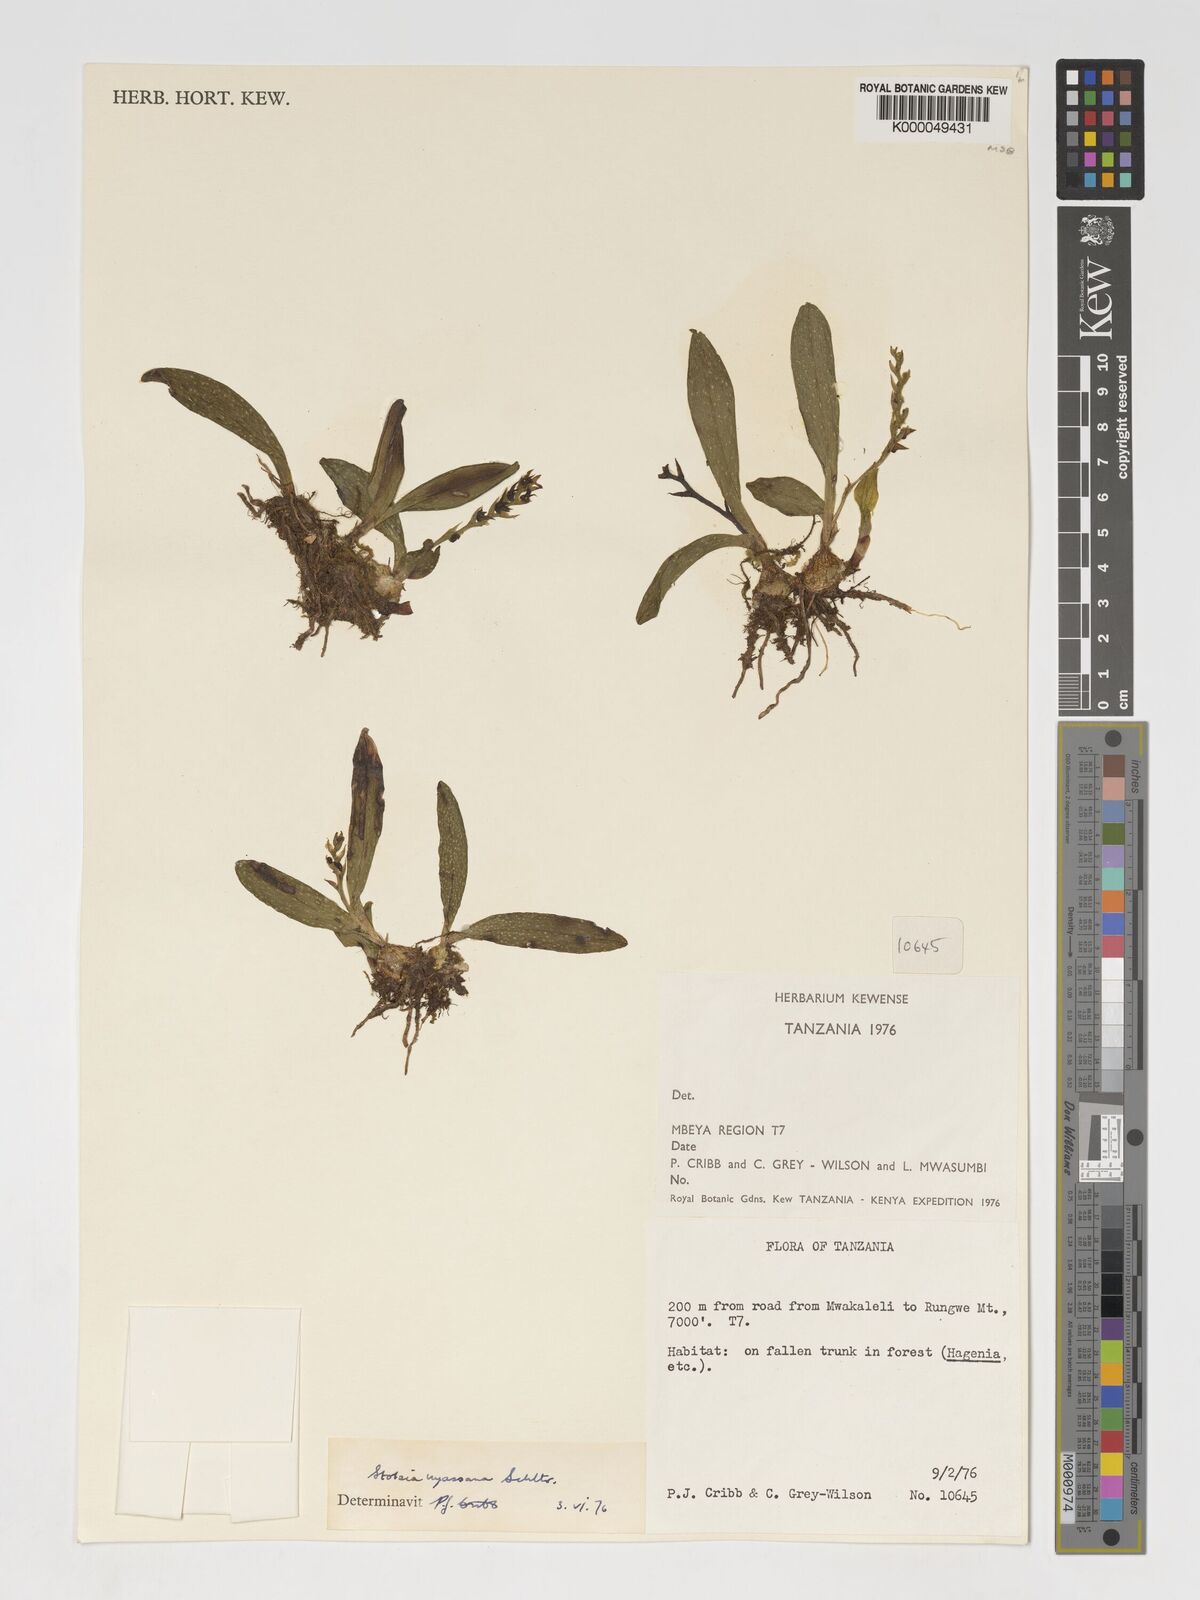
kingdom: Plantae
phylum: Tracheophyta
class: Liliopsida
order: Asparagales
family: Orchidaceae
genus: Porpax
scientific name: Porpax nyassana
